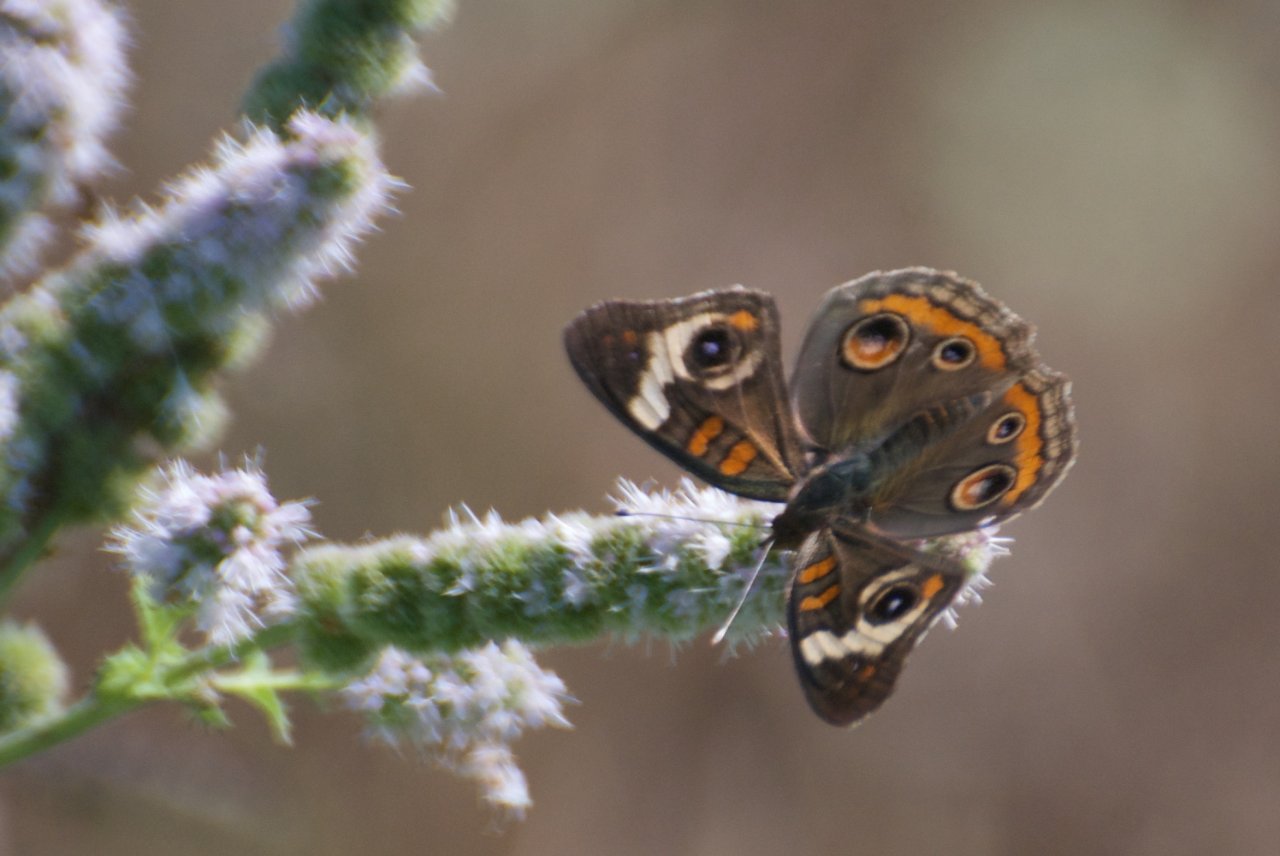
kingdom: Animalia
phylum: Arthropoda
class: Insecta
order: Lepidoptera
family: Nymphalidae
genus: Junonia
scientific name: Junonia coenia
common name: Common Buckeye
